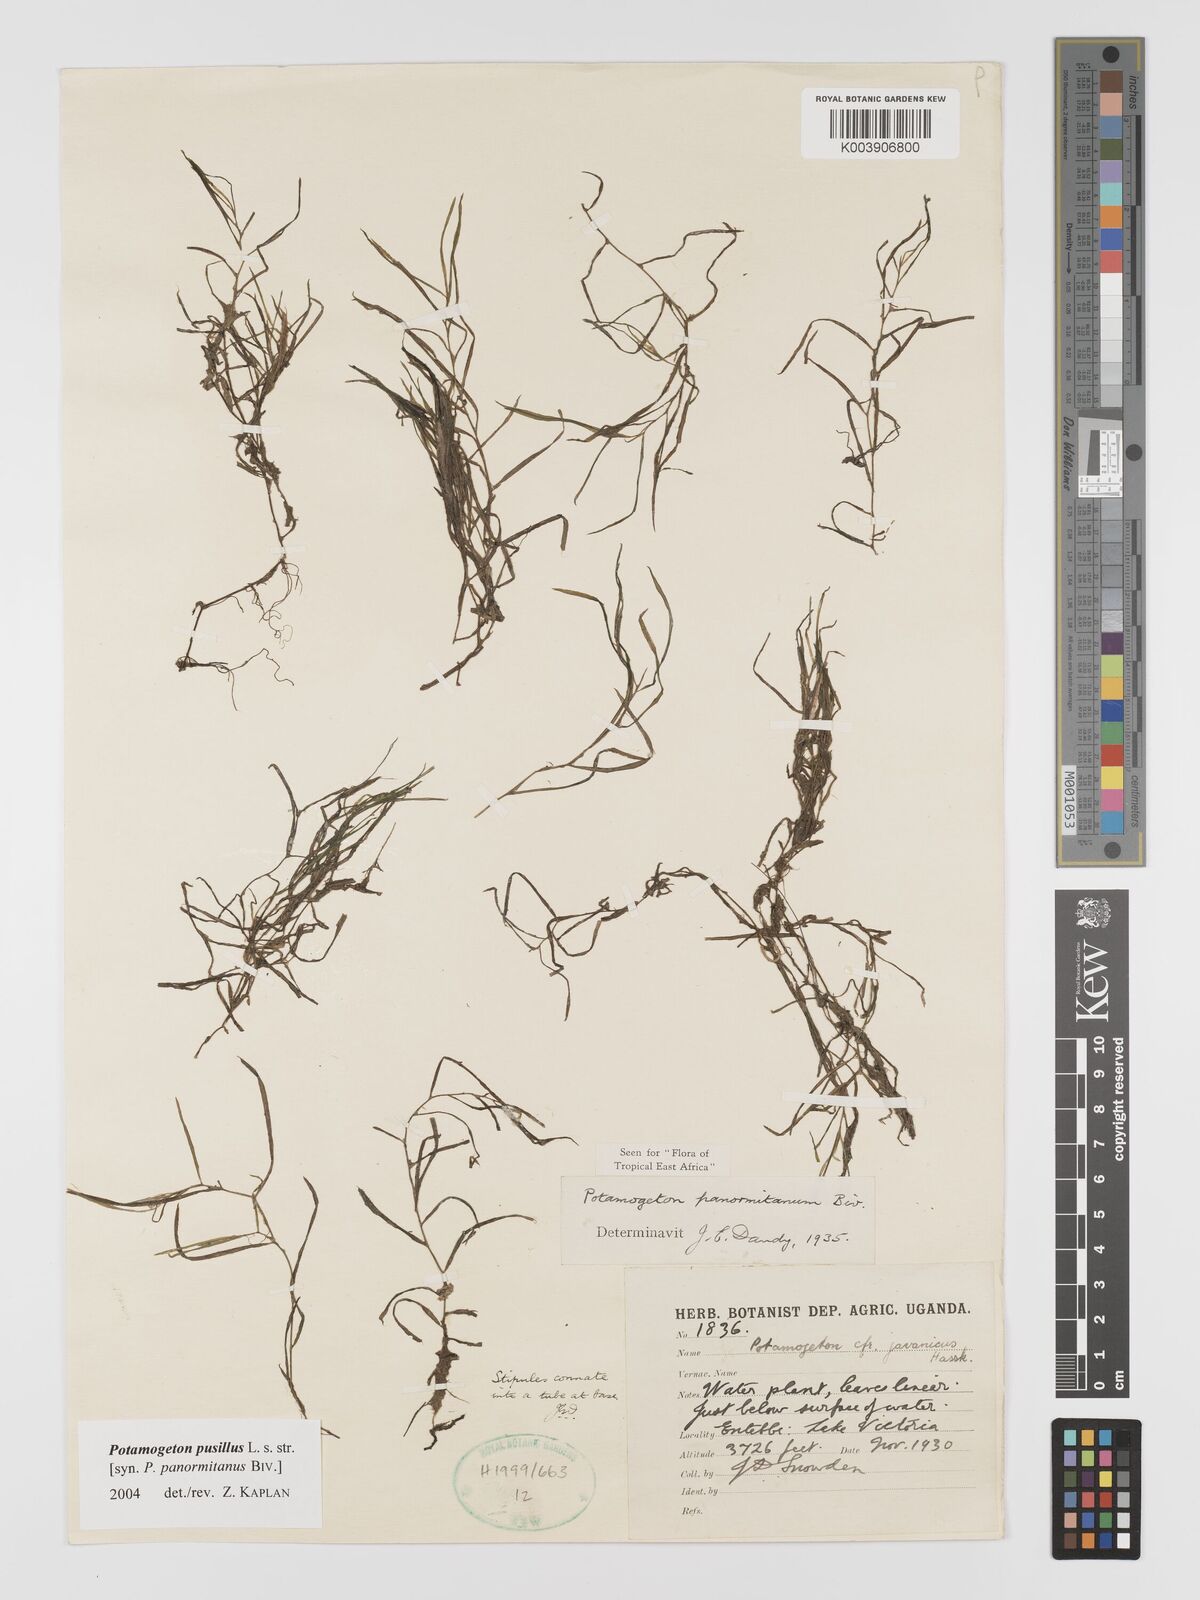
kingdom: Plantae
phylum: Tracheophyta
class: Liliopsida
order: Alismatales
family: Potamogetonaceae
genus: Potamogeton
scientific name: Potamogeton pusillus
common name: Lesser pondweed
